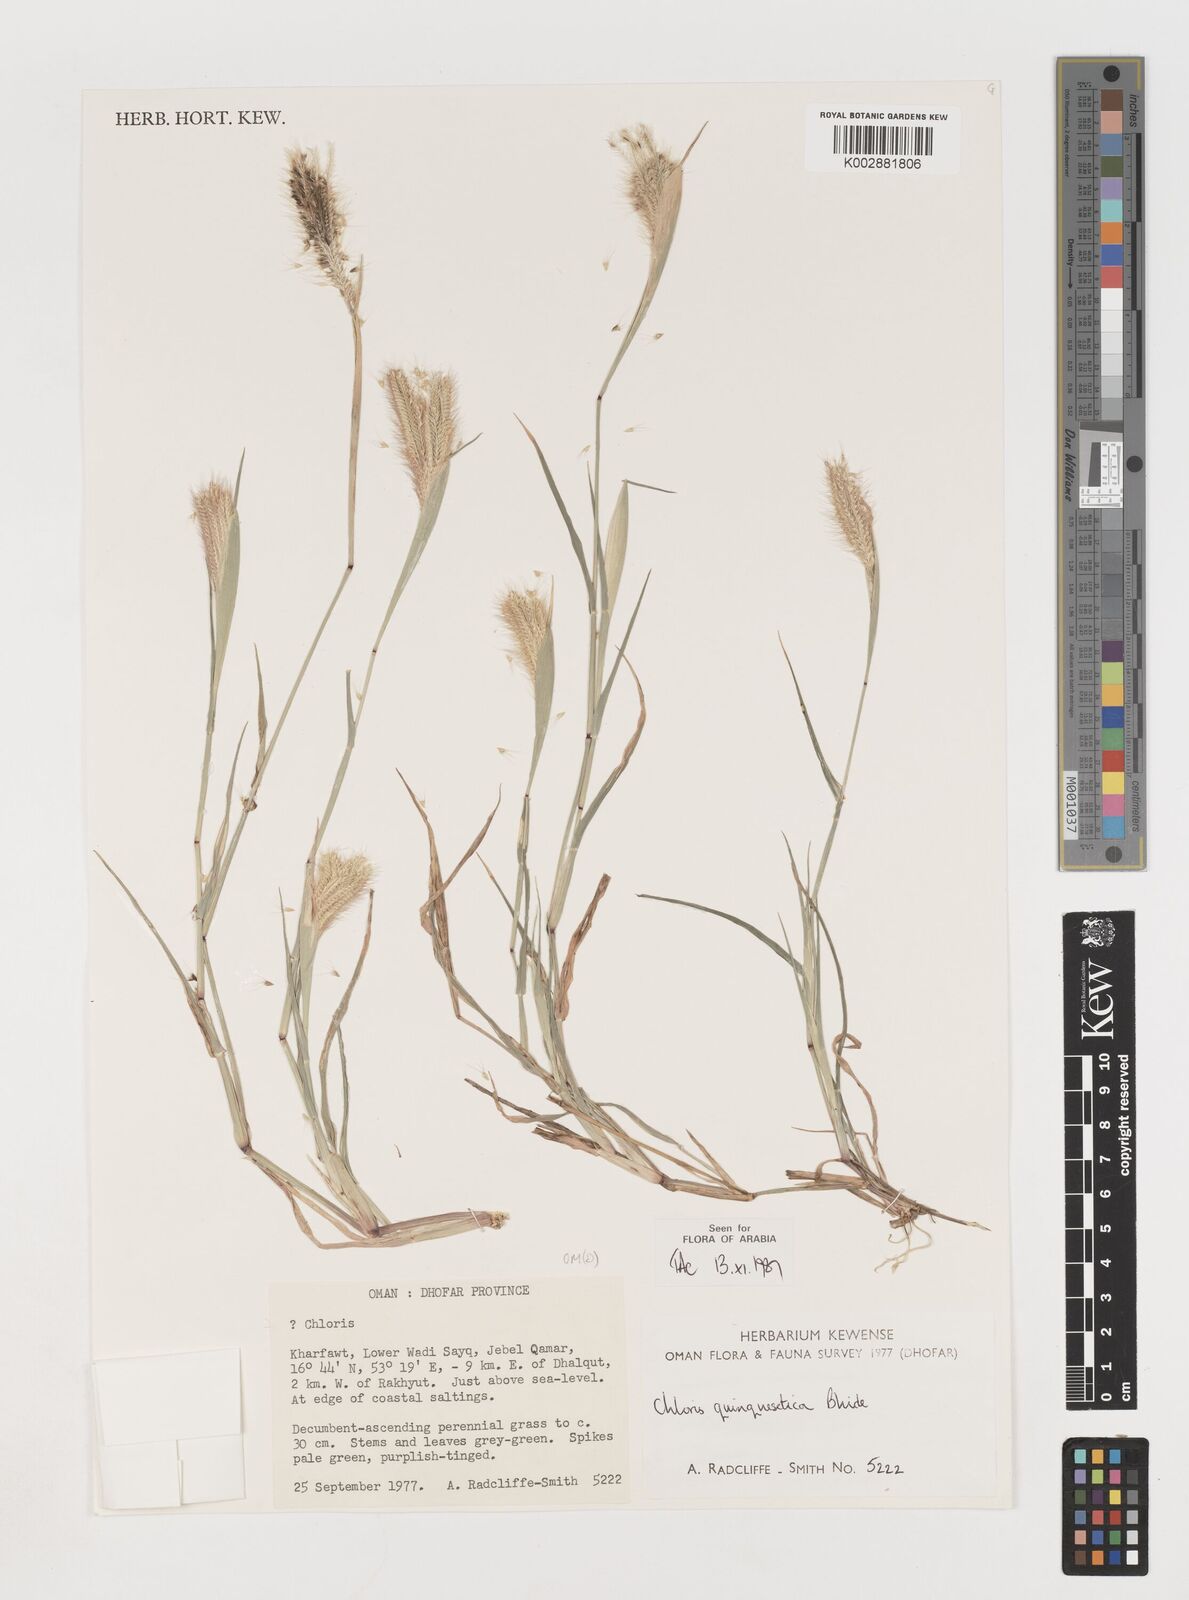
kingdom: Plantae
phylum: Tracheophyta
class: Liliopsida
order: Poales
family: Poaceae
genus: Chloris
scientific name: Chloris quinquesetica
